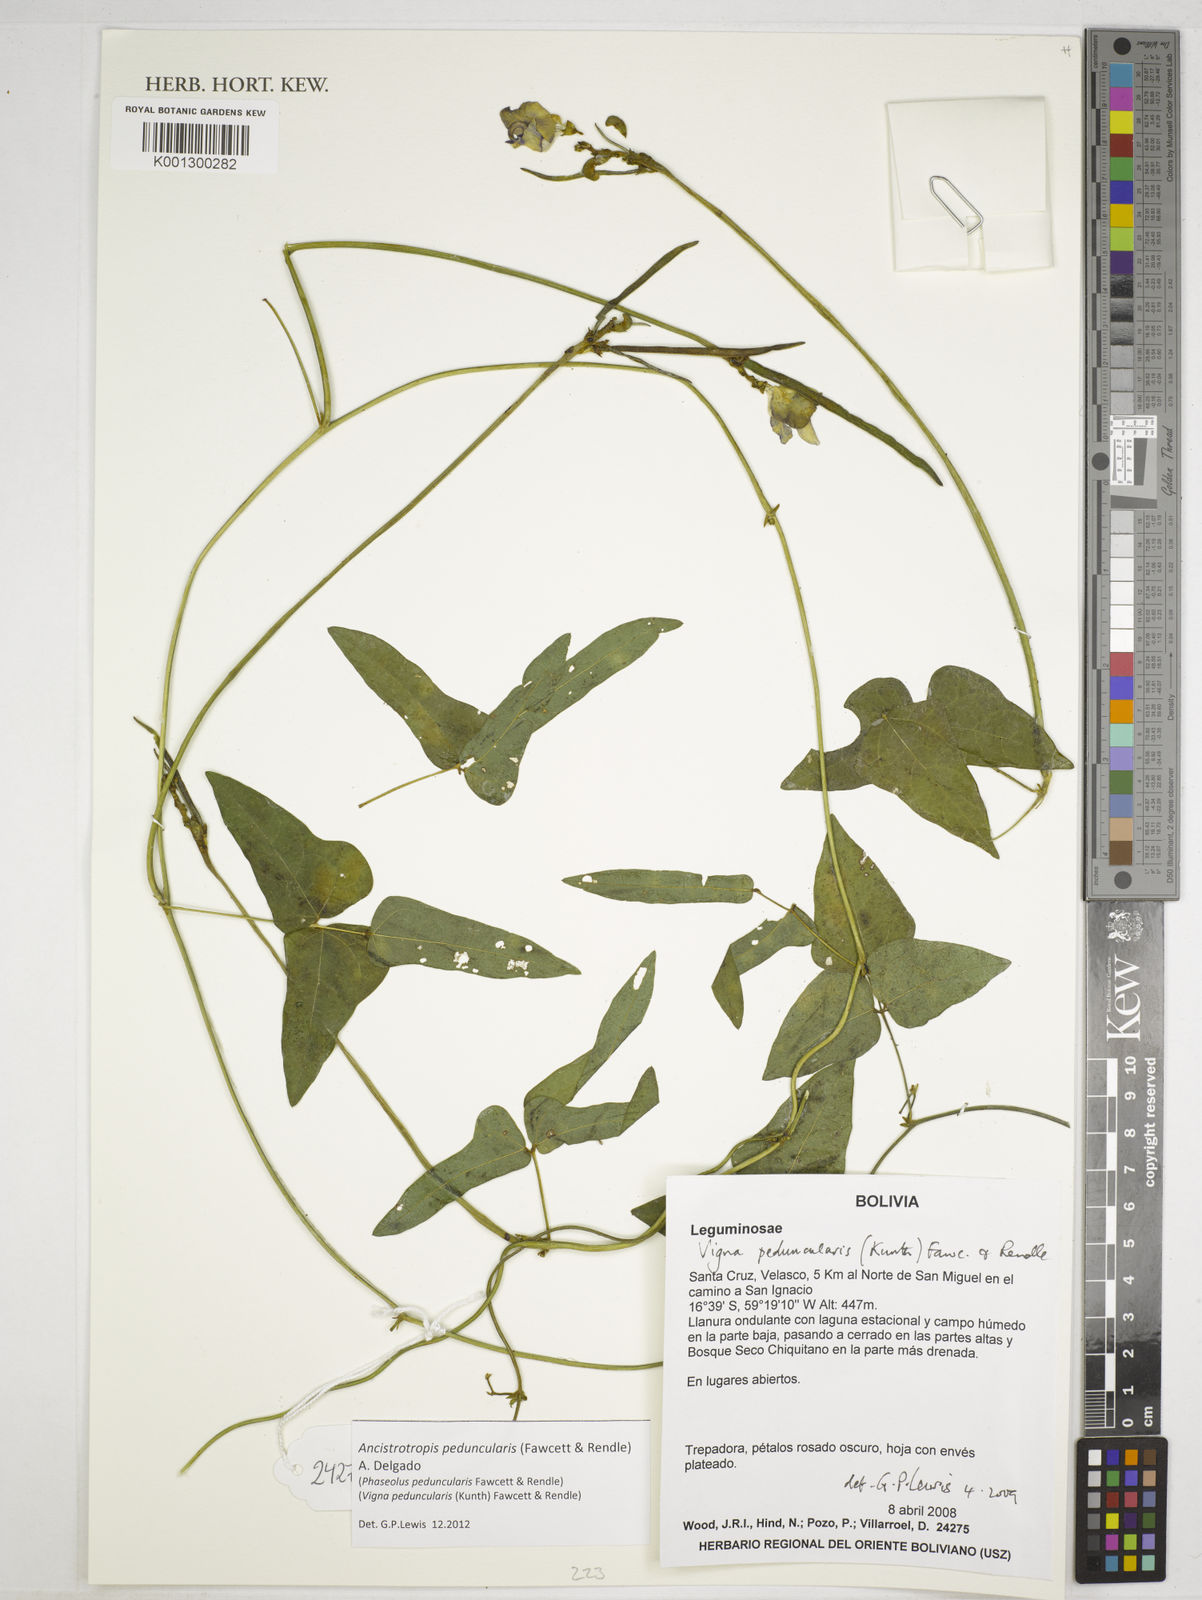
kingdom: Plantae
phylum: Tracheophyta
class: Magnoliopsida
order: Fabales
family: Fabaceae
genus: Ancistrotropis
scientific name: Ancistrotropis peduncularis
